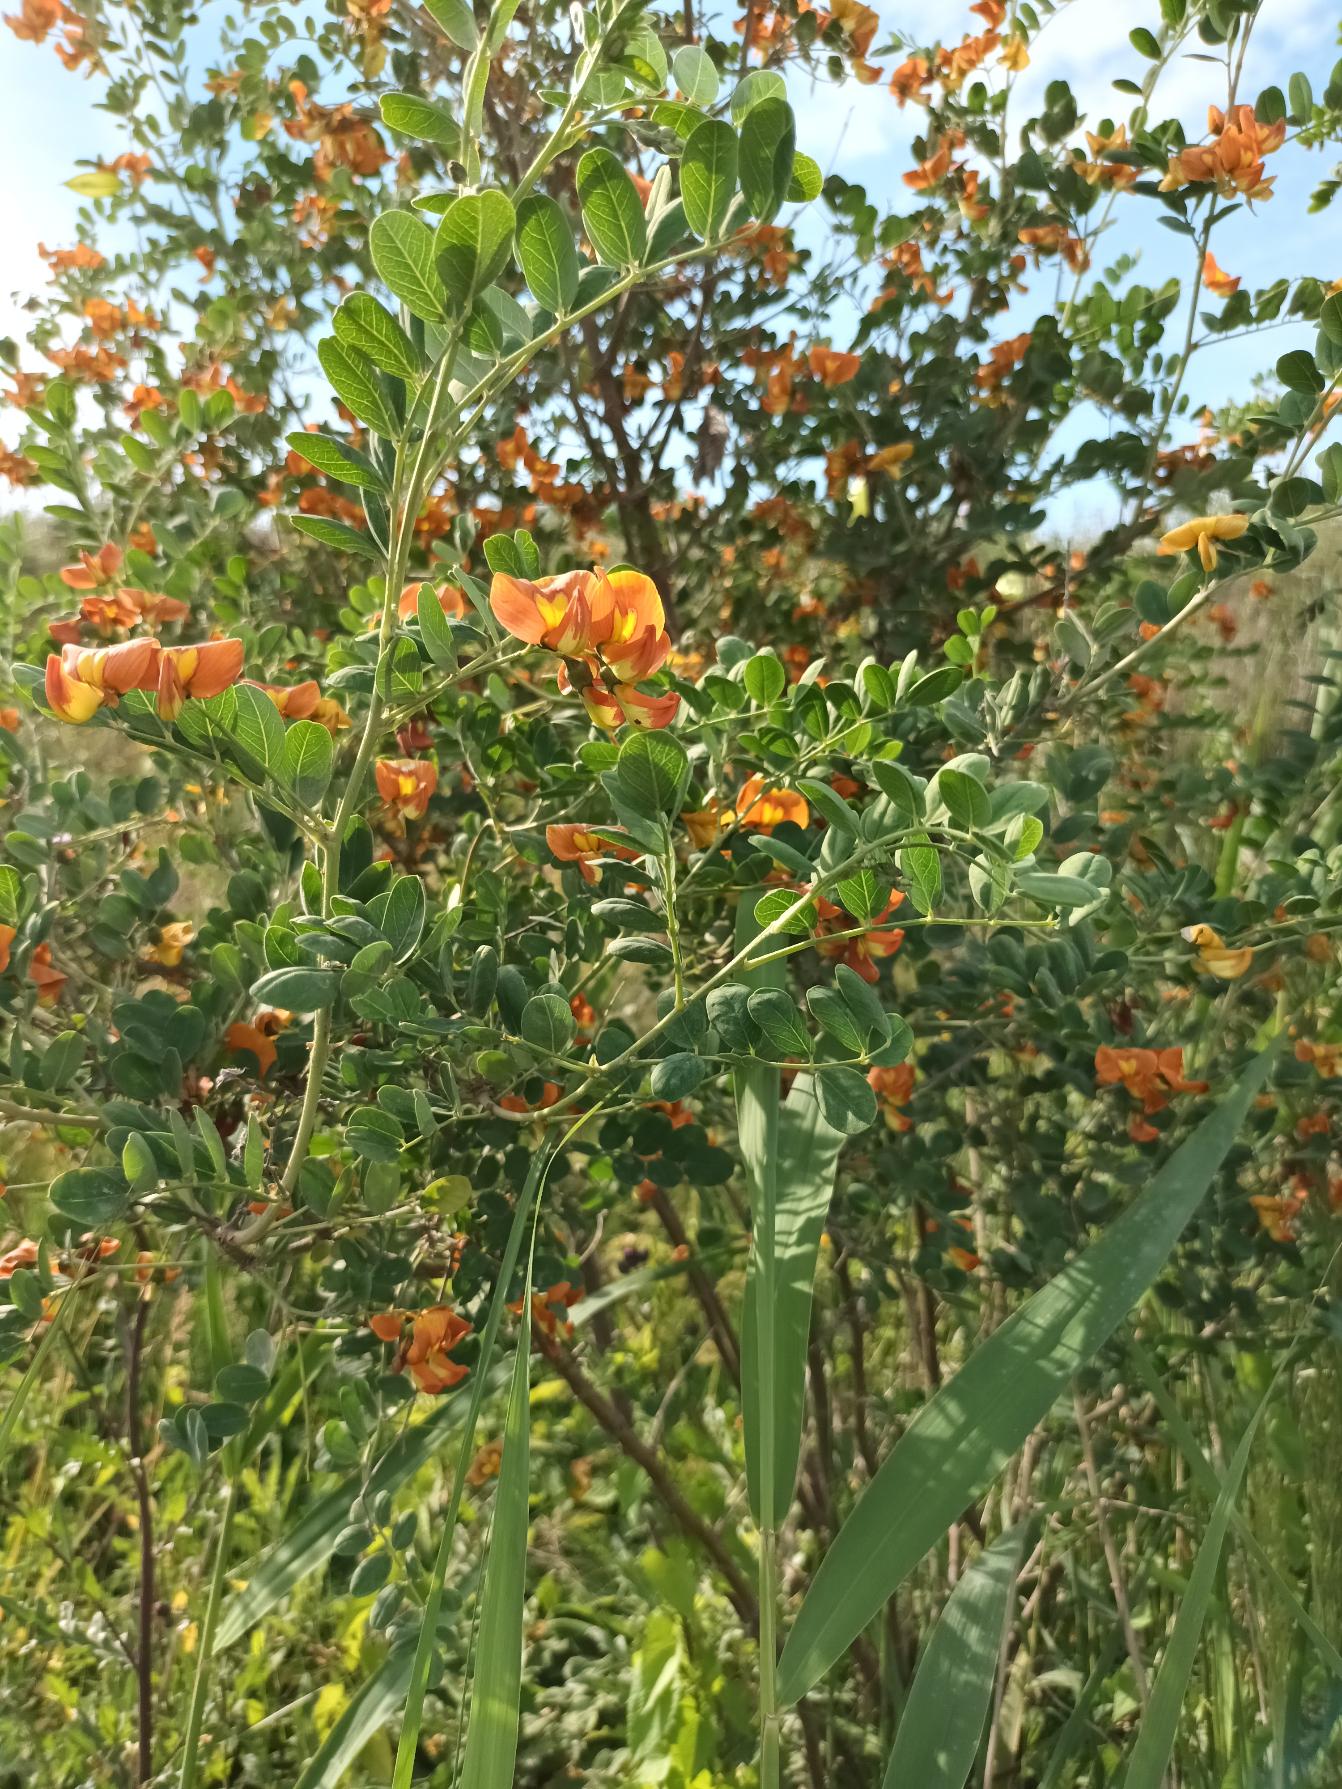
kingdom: Plantae
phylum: Tracheophyta
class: Magnoliopsida
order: Fabales
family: Fabaceae
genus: Colutea
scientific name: Colutea media
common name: Orange blærebælg
